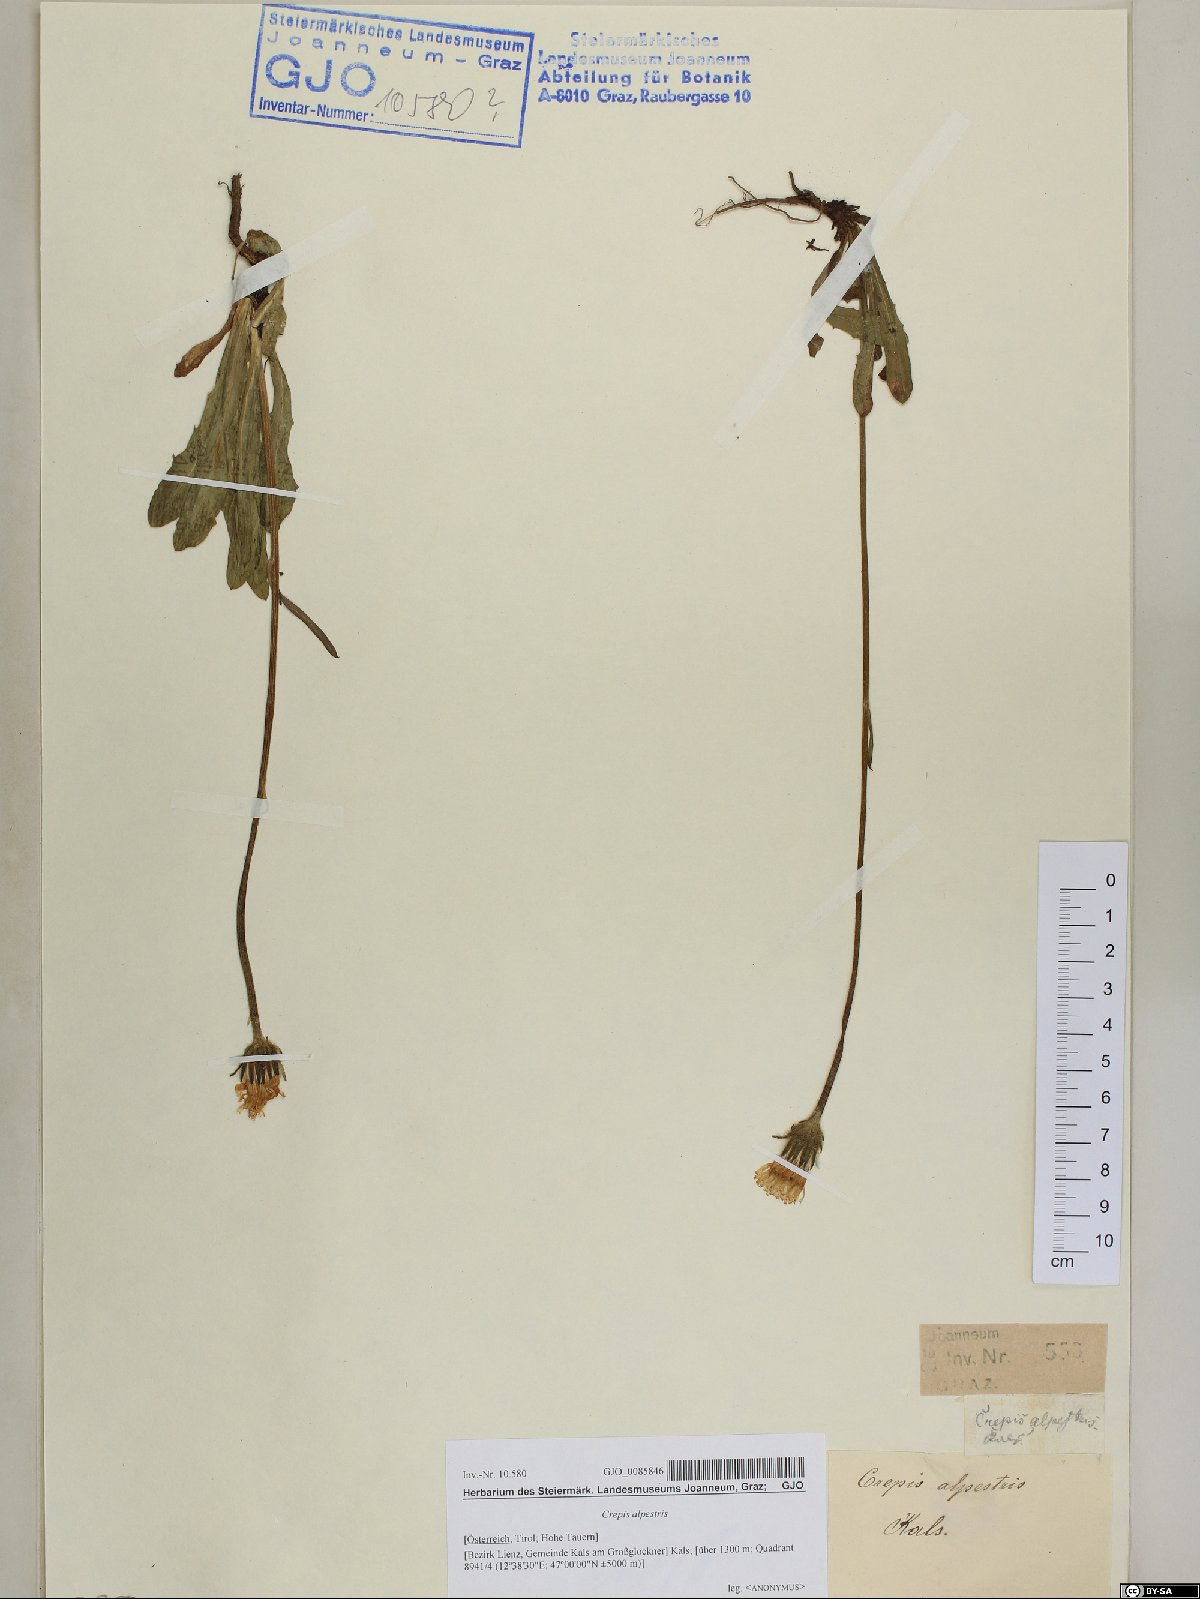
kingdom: Plantae
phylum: Tracheophyta
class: Magnoliopsida
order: Asterales
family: Asteraceae
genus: Crepis
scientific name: Crepis alpestris
